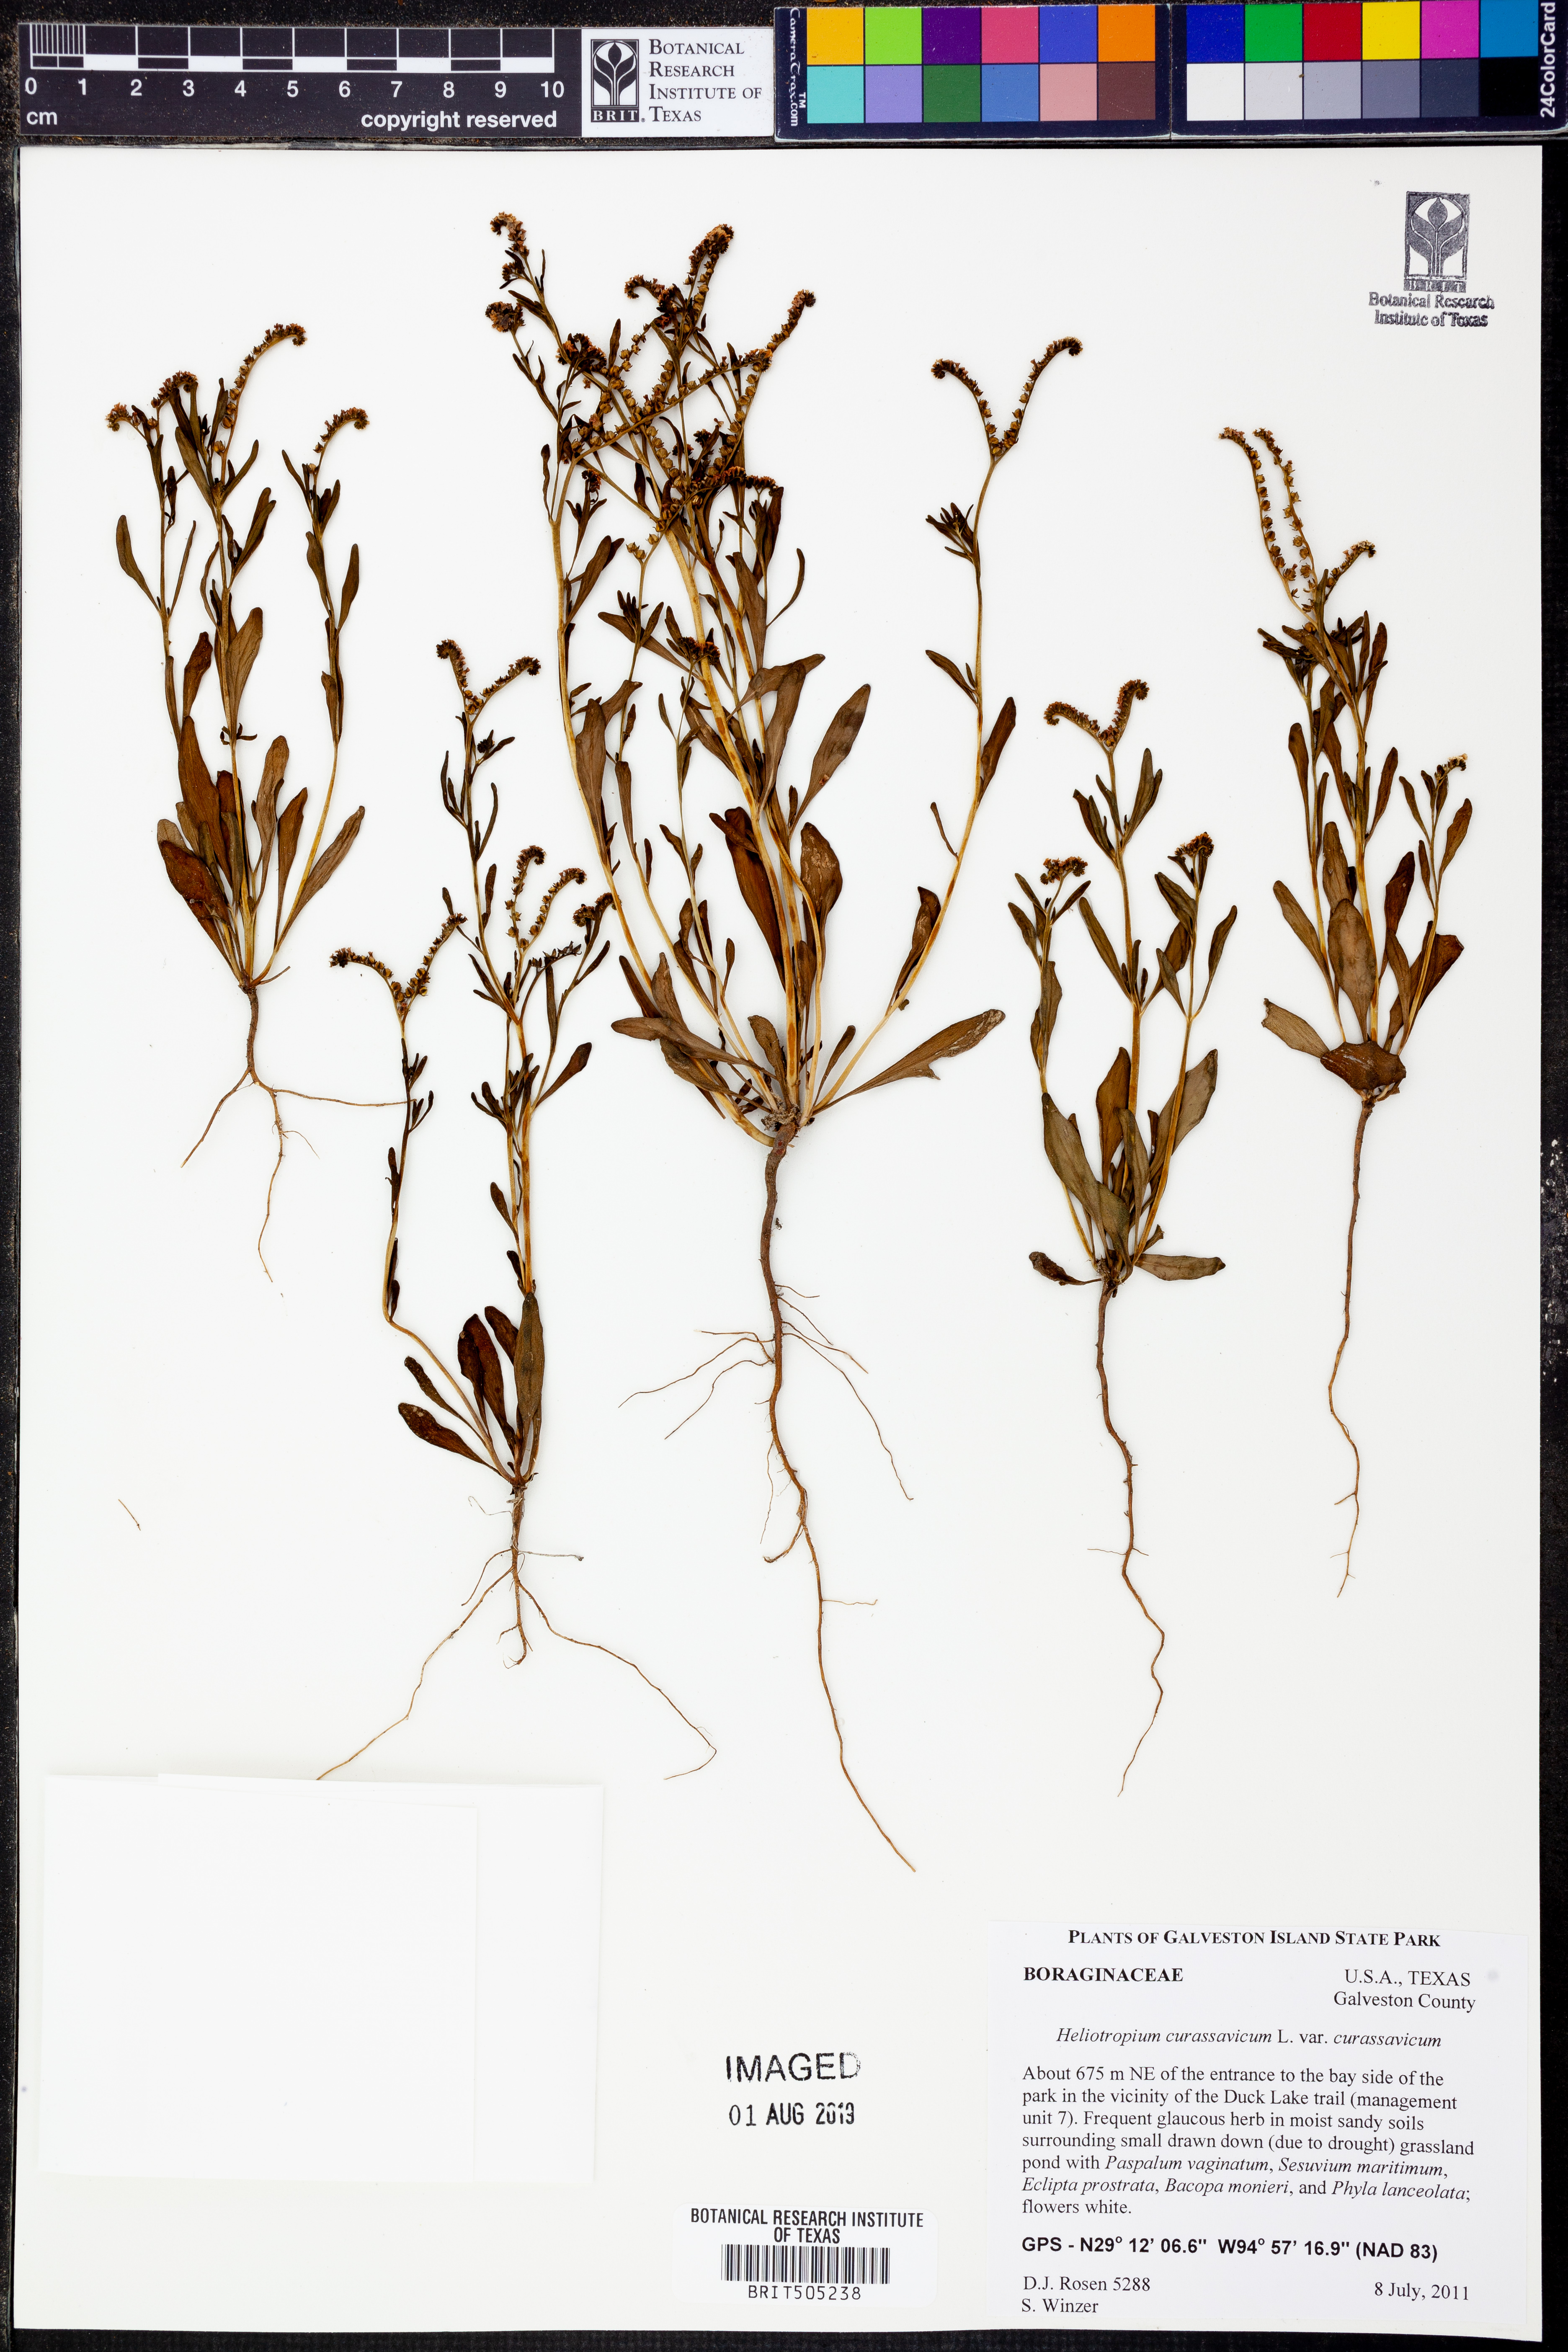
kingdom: Plantae
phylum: Tracheophyta
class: Magnoliopsida
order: Boraginales
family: Heliotropiaceae
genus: Heliotropium
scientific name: Heliotropium curassavicum
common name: Seaside heliotrope
